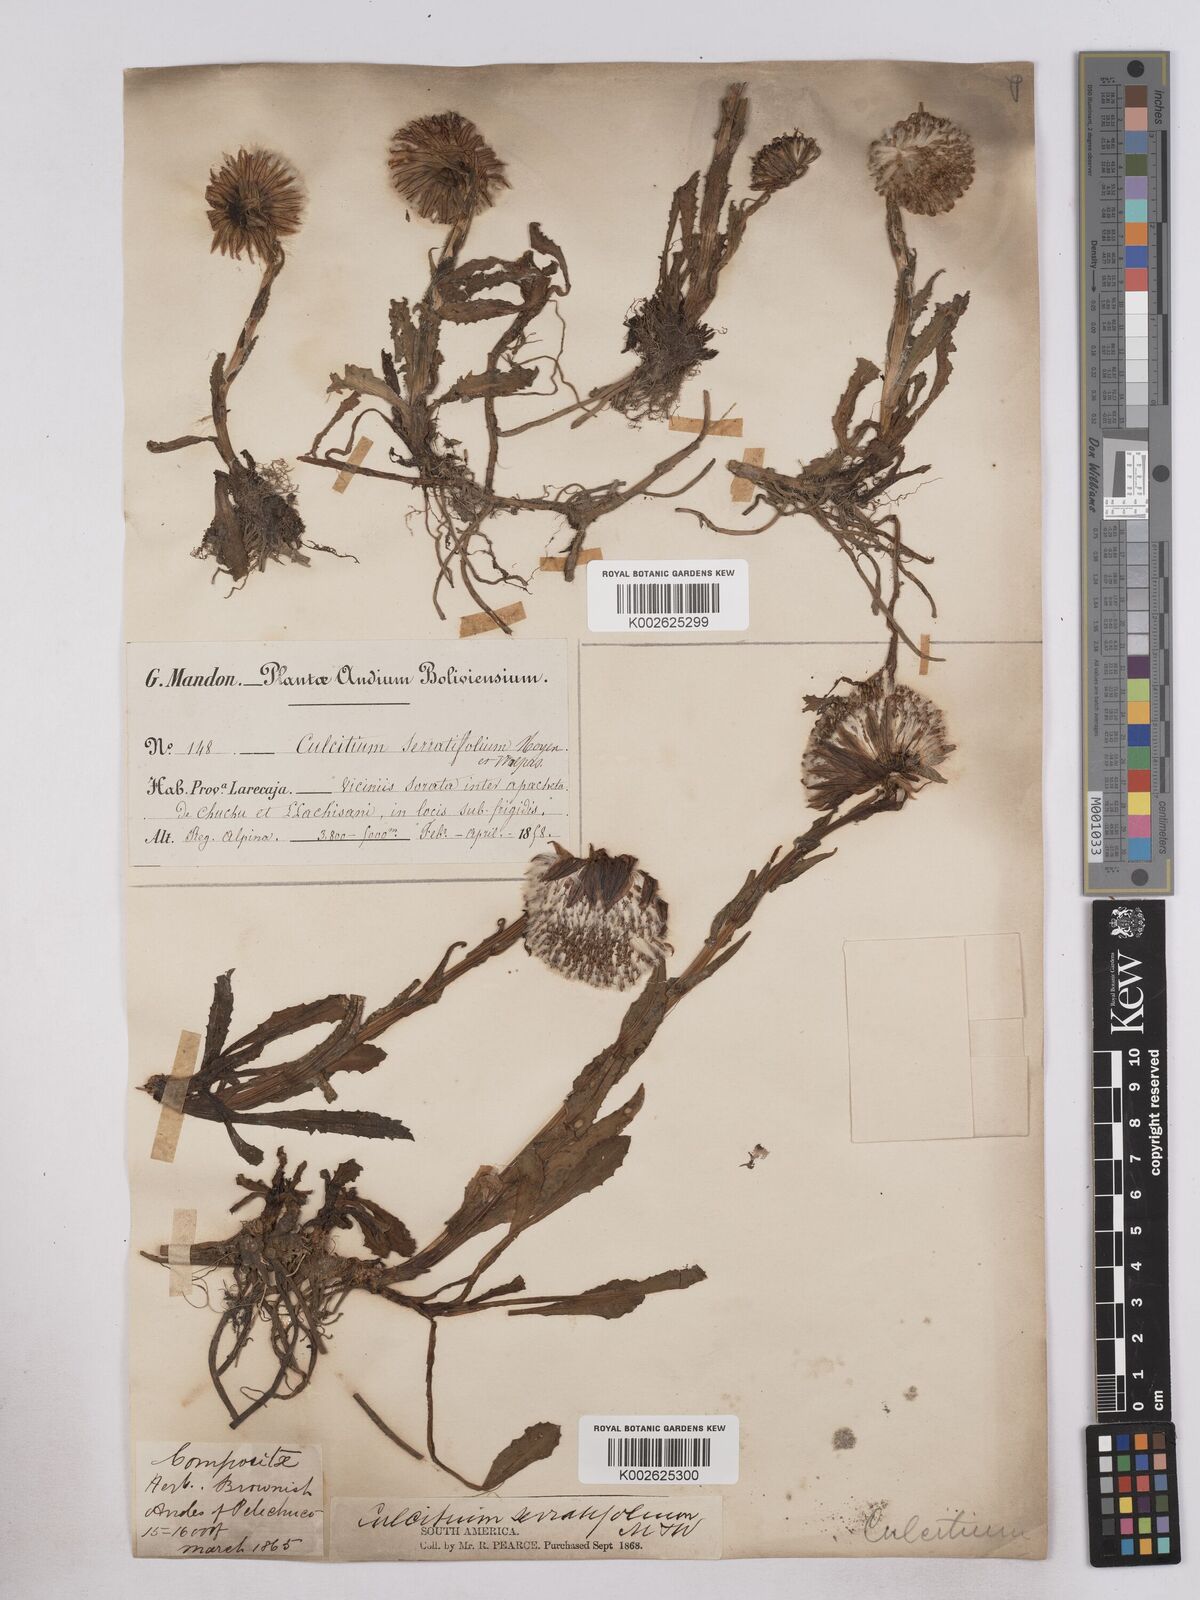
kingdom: Plantae
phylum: Tracheophyta
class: Magnoliopsida
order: Asterales
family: Asteraceae
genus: Senecio
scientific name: Senecio serratifolius
